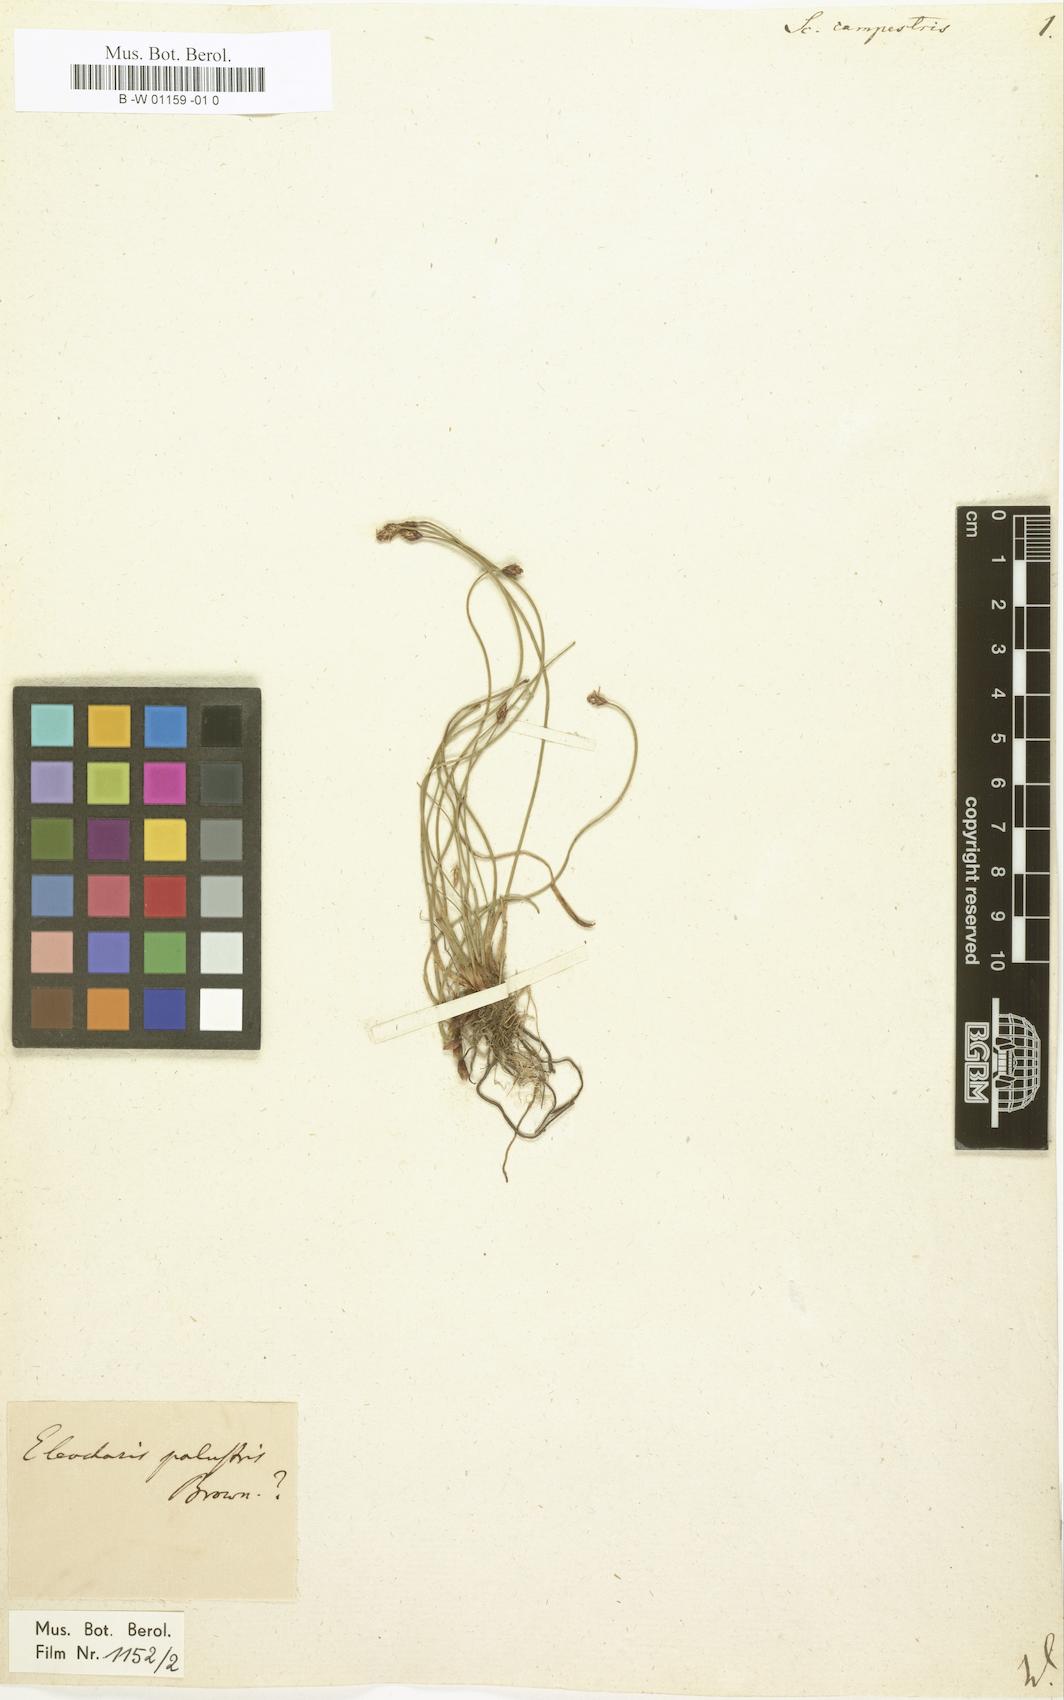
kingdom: Plantae
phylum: Tracheophyta
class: Liliopsida
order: Poales
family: Cyperaceae
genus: Eleocharis
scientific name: Eleocharis quinqueflora
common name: Few-flowered spike-rush
